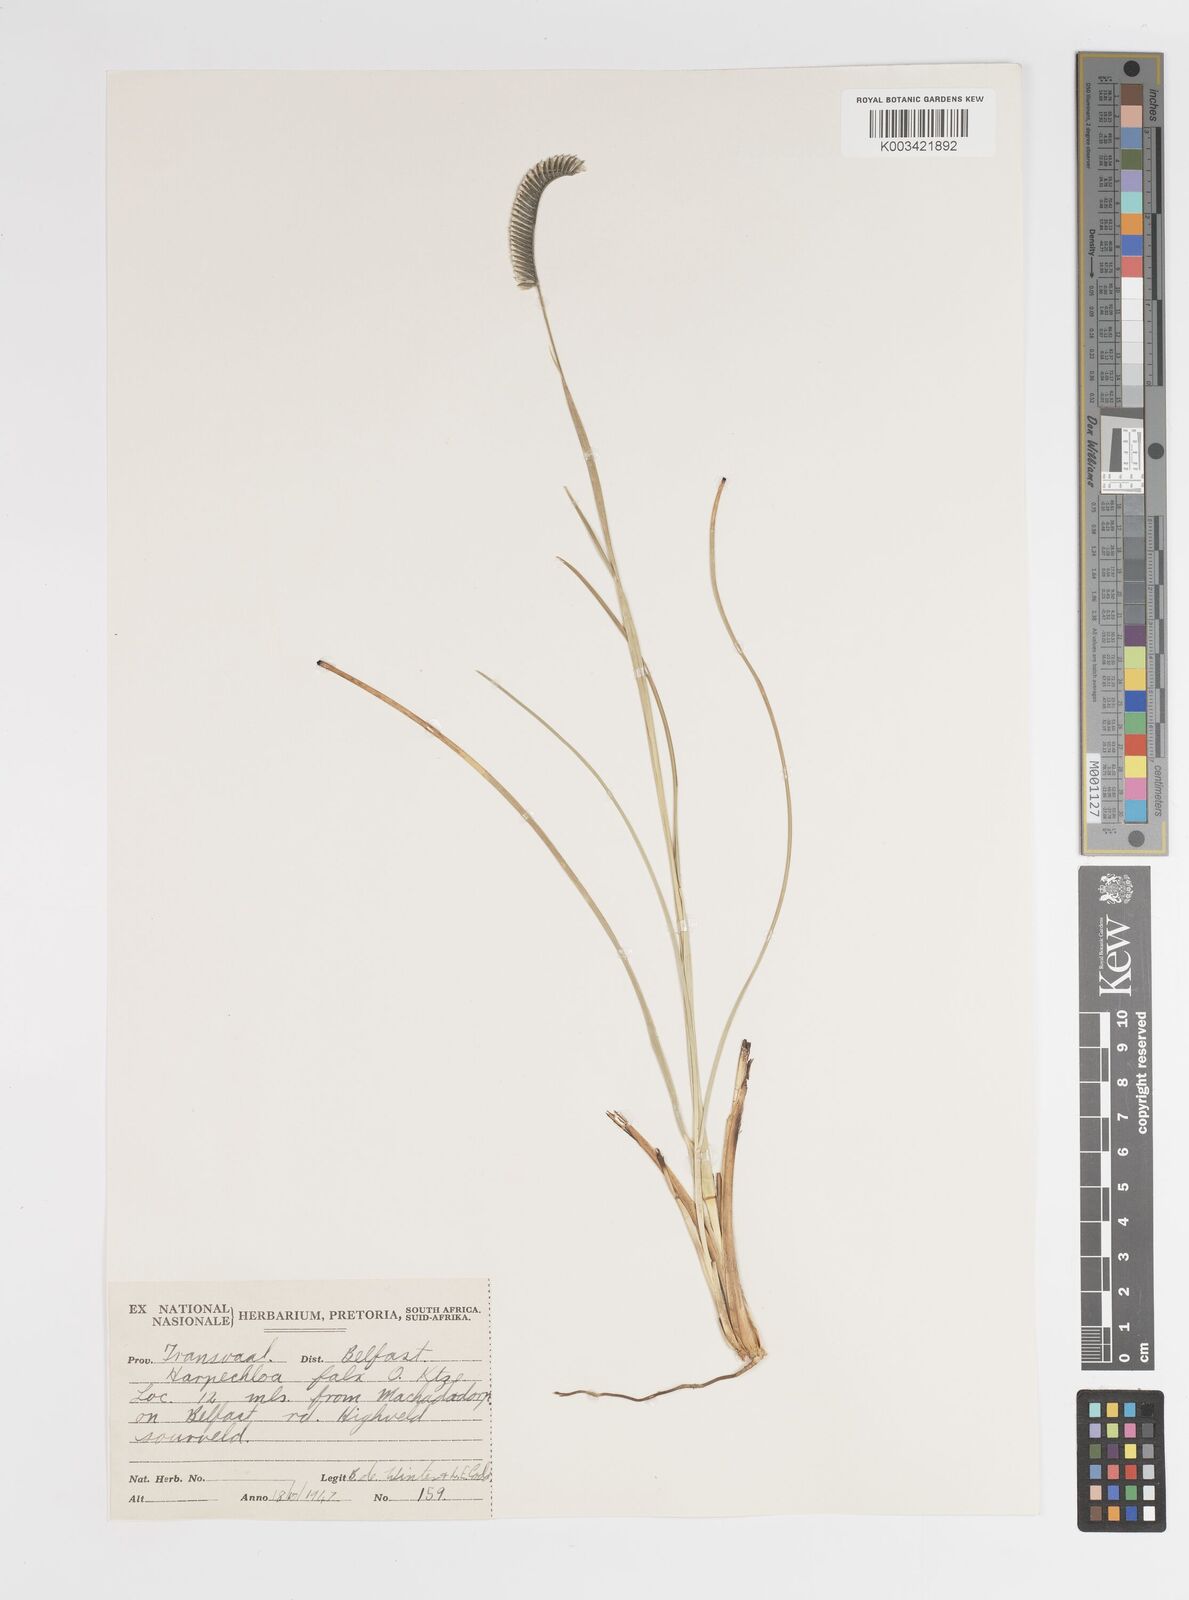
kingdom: Plantae
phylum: Tracheophyta
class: Liliopsida
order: Poales
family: Poaceae
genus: Harpochloa
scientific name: Harpochloa falx
